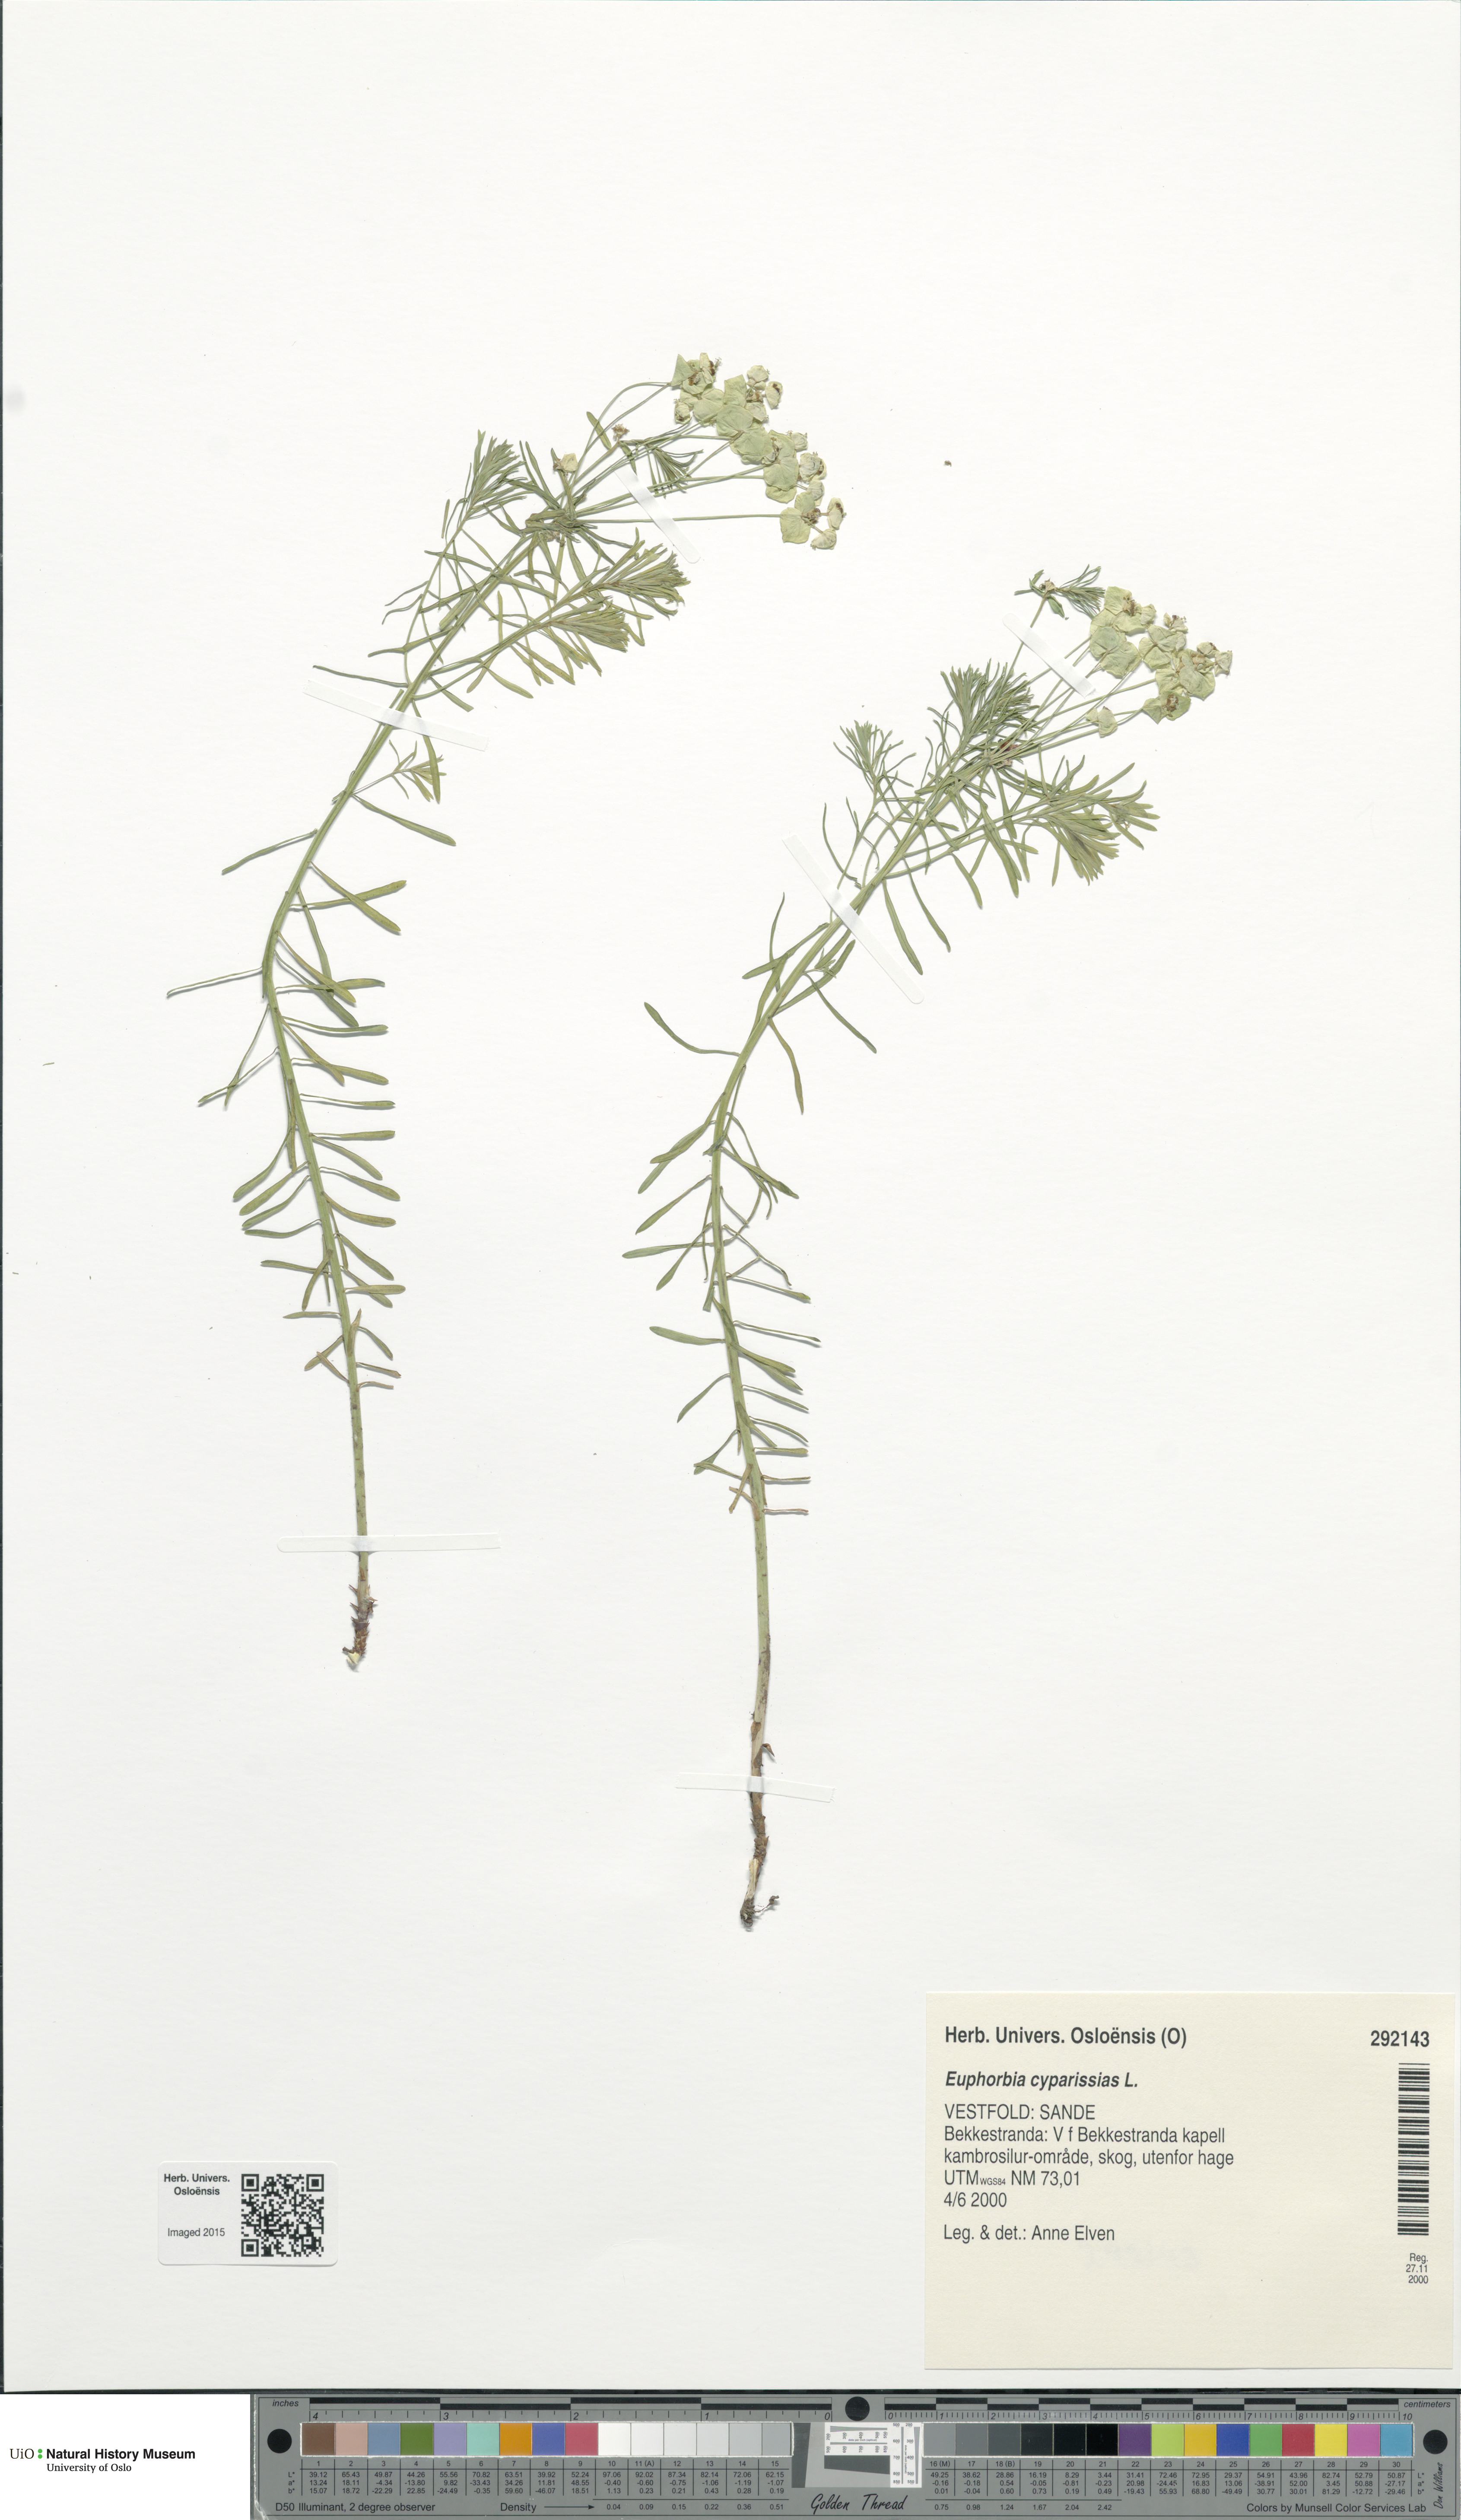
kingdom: Plantae
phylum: Tracheophyta
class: Magnoliopsida
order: Malpighiales
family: Euphorbiaceae
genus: Euphorbia
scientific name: Euphorbia cyparissias
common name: Cypress spurge
